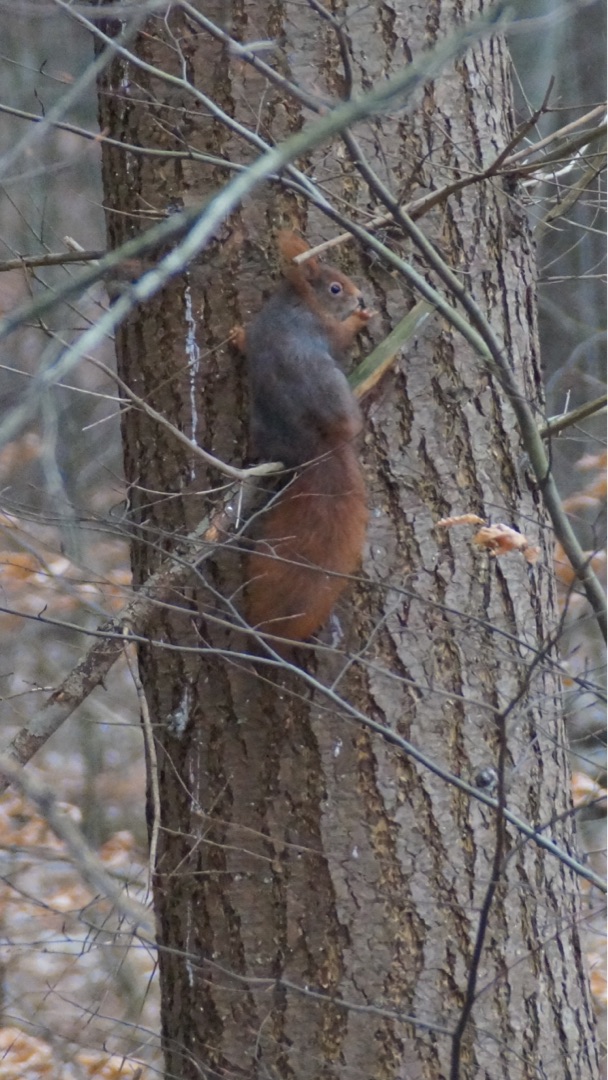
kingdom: Animalia
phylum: Chordata
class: Mammalia
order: Rodentia
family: Sciuridae
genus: Sciurus
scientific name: Sciurus vulgaris
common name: Egern
